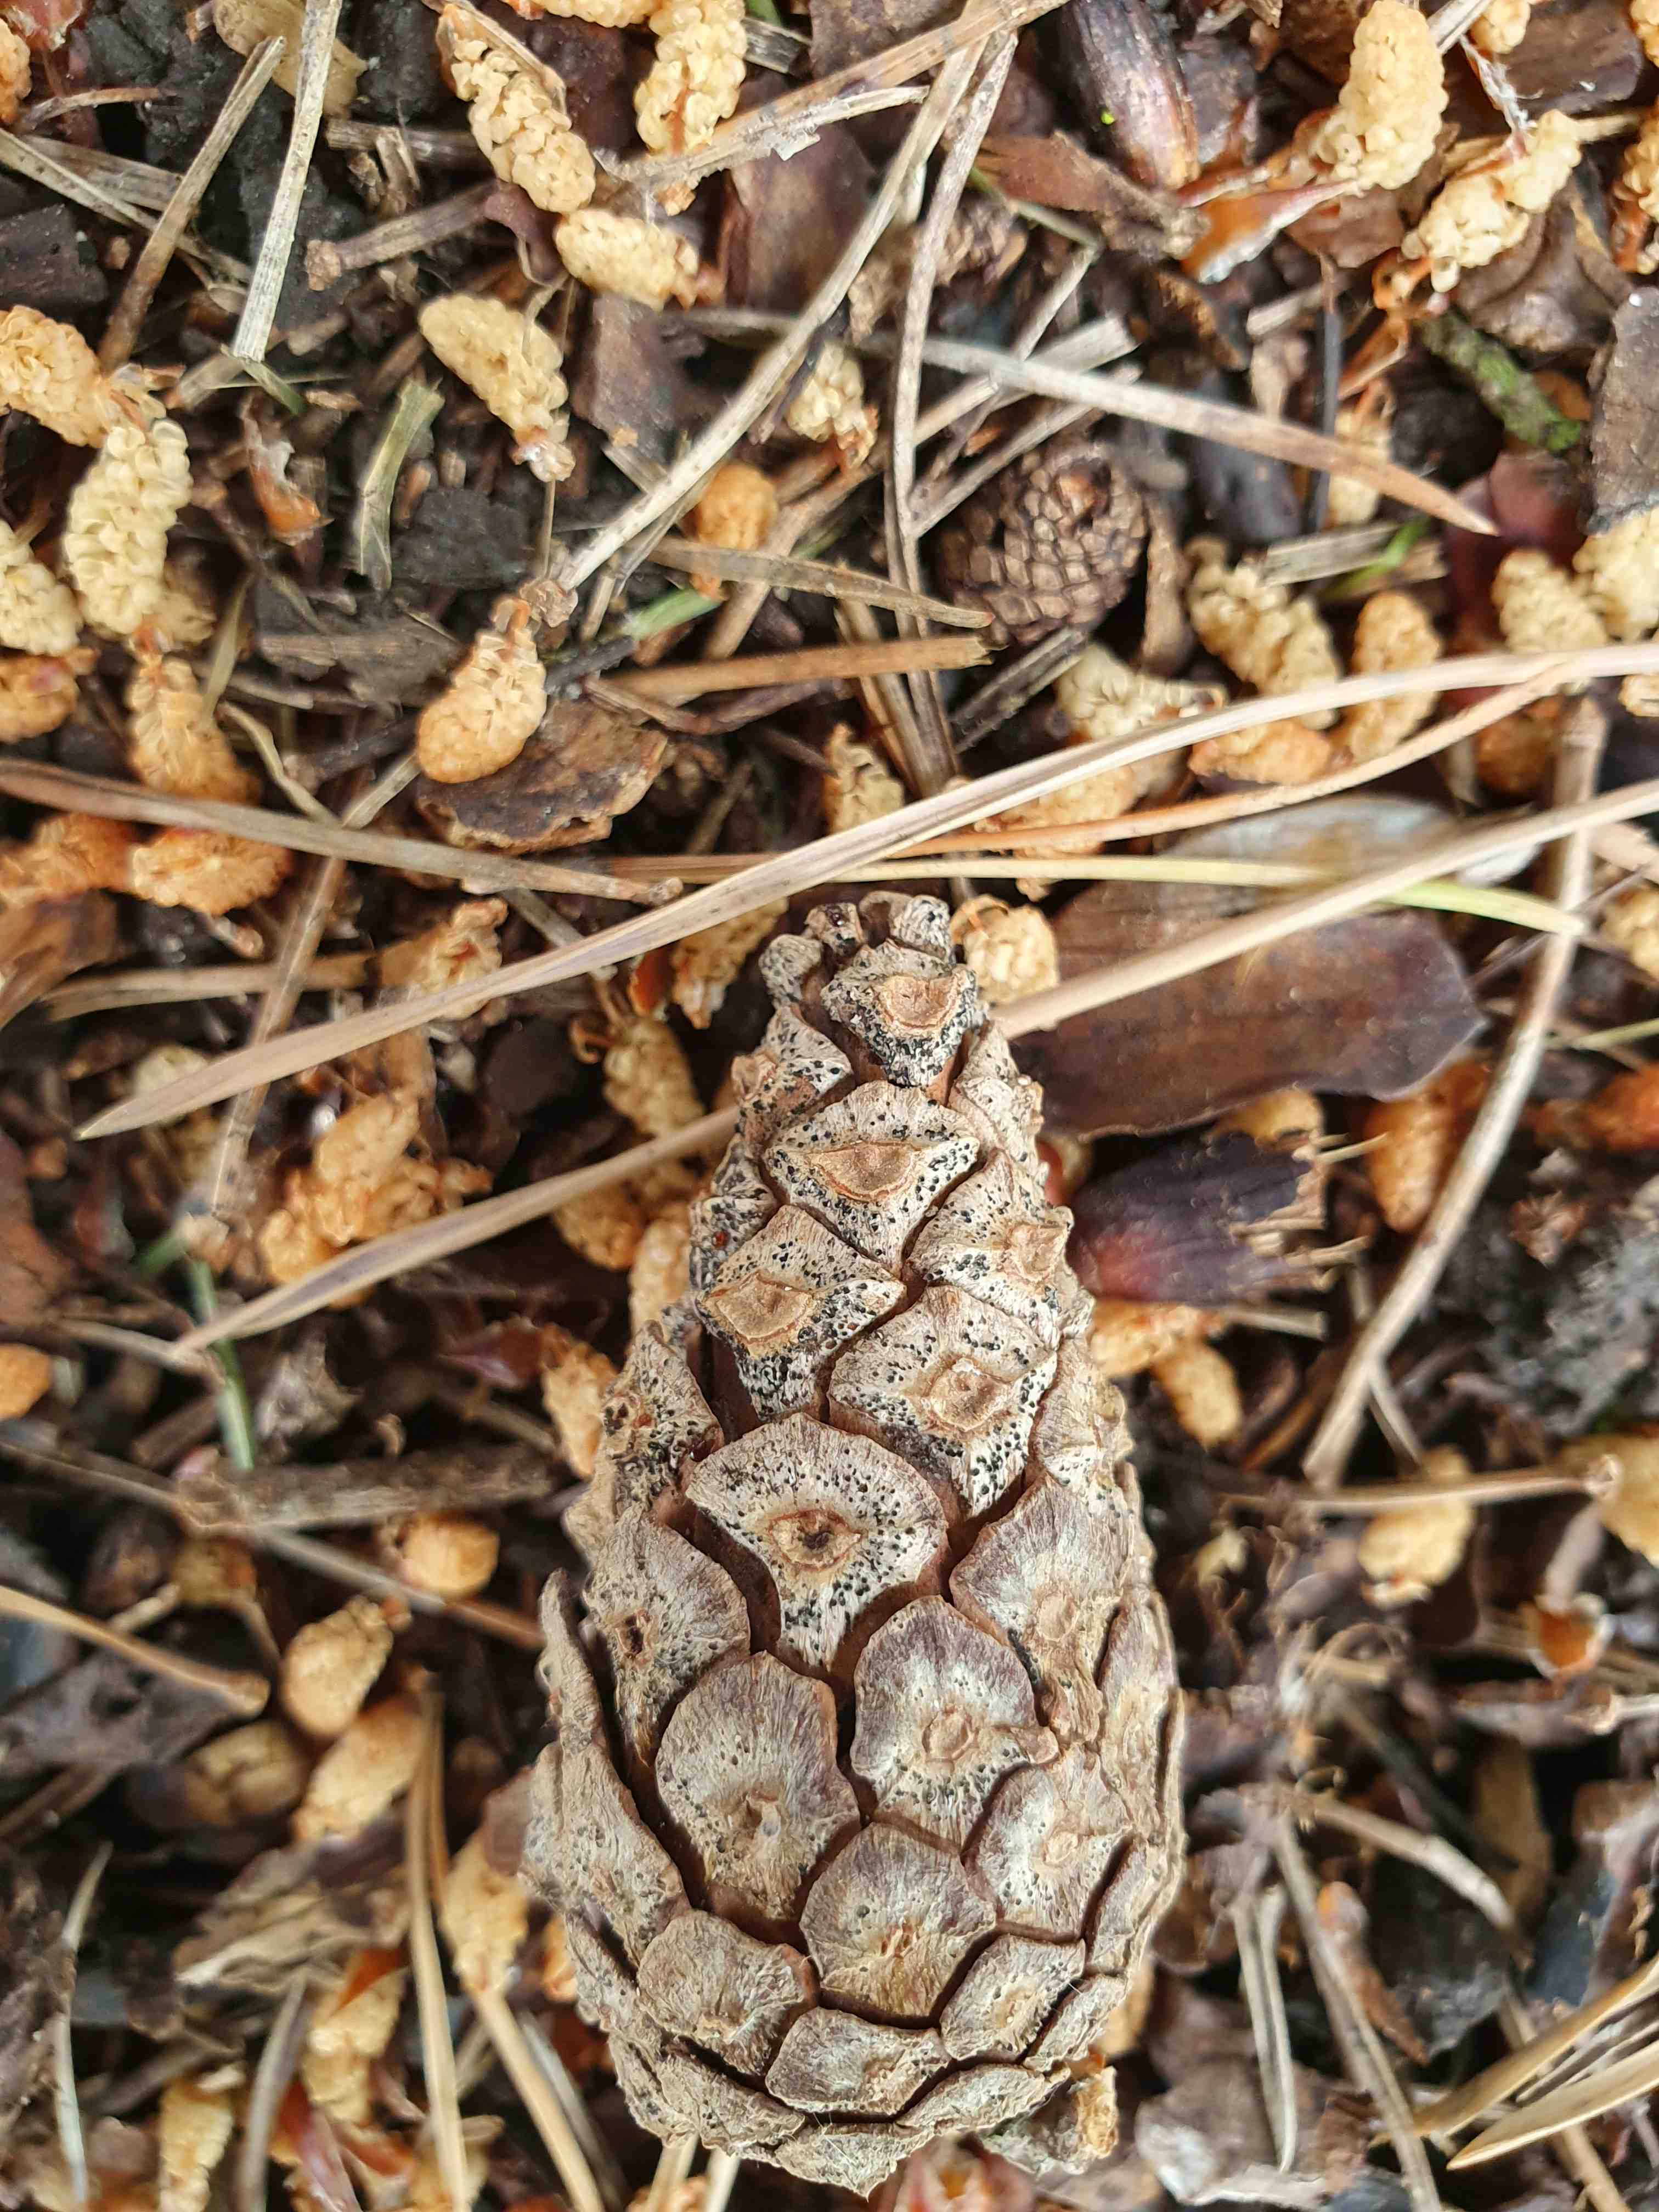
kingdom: Fungi
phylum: Ascomycota
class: Dothideomycetes
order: Botryosphaeriales
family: Botryosphaeriaceae
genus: Sphaeropsis
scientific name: Sphaeropsis sapinea
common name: Sphaeropsis blight
